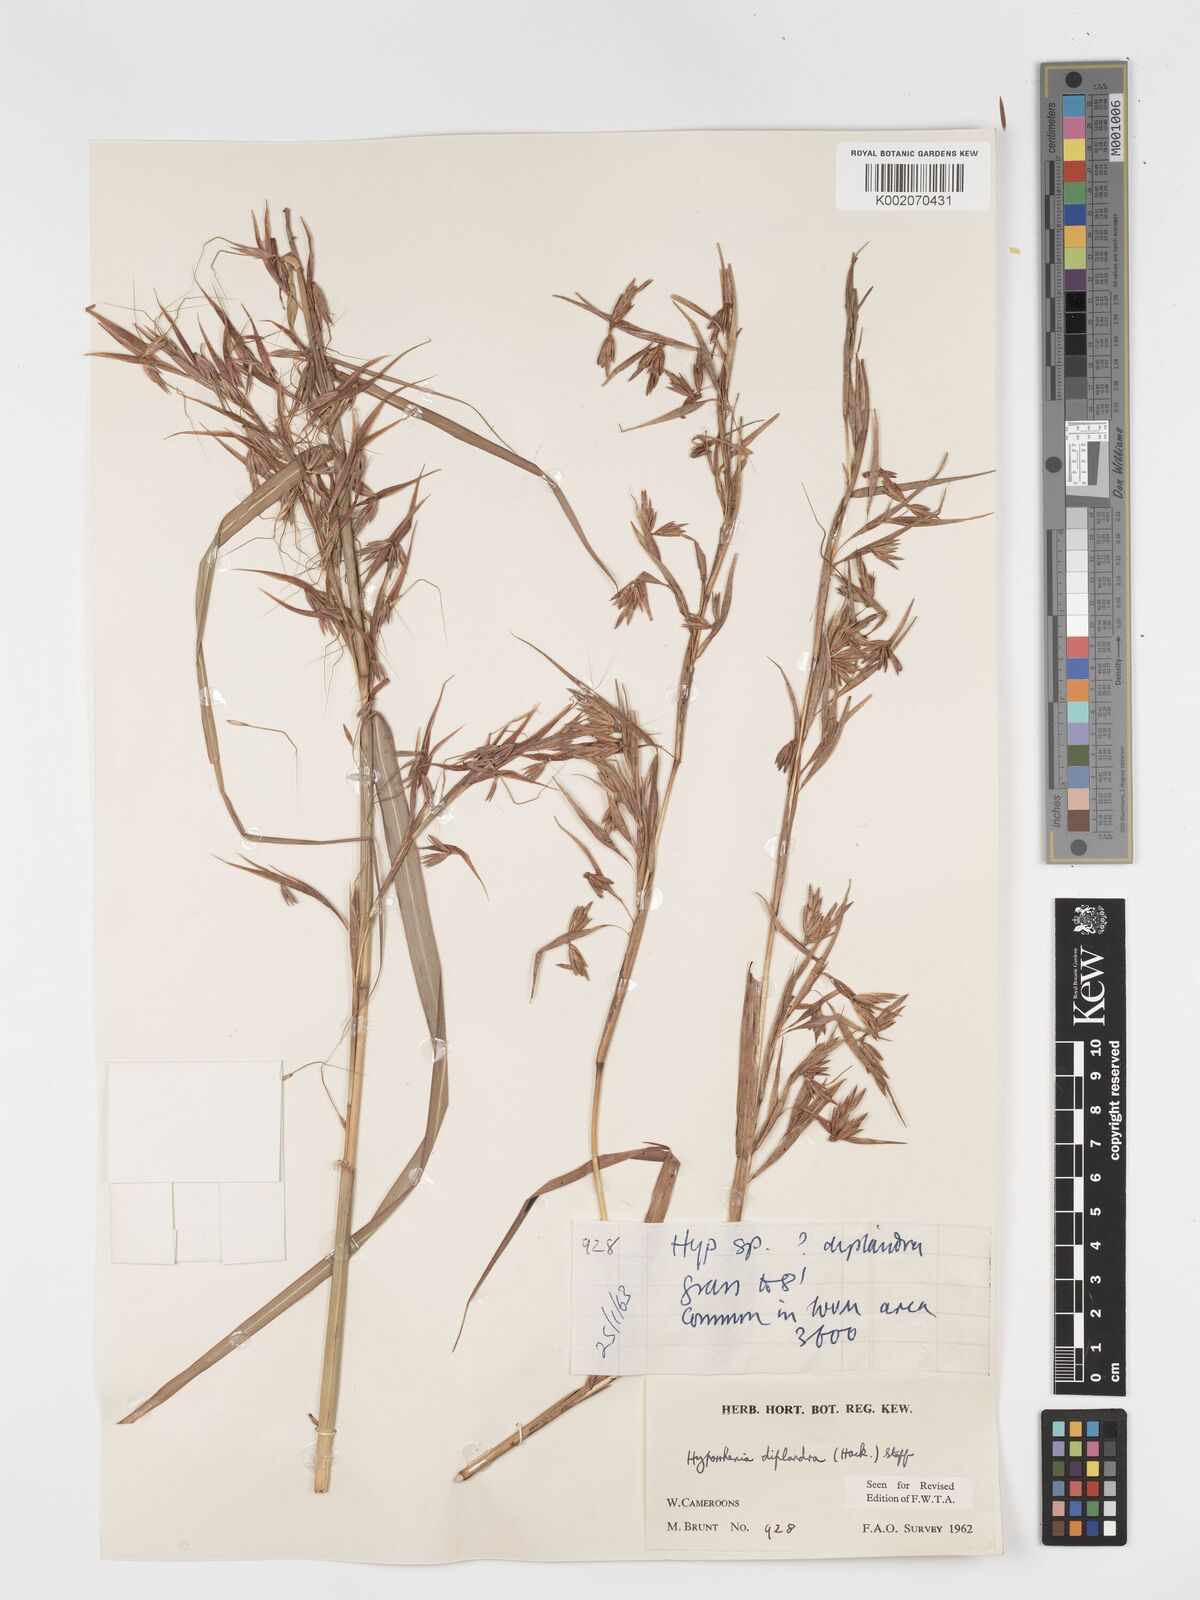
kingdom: Plantae
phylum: Tracheophyta
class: Liliopsida
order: Poales
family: Poaceae
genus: Hyparrhenia
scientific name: Hyparrhenia diplandra
